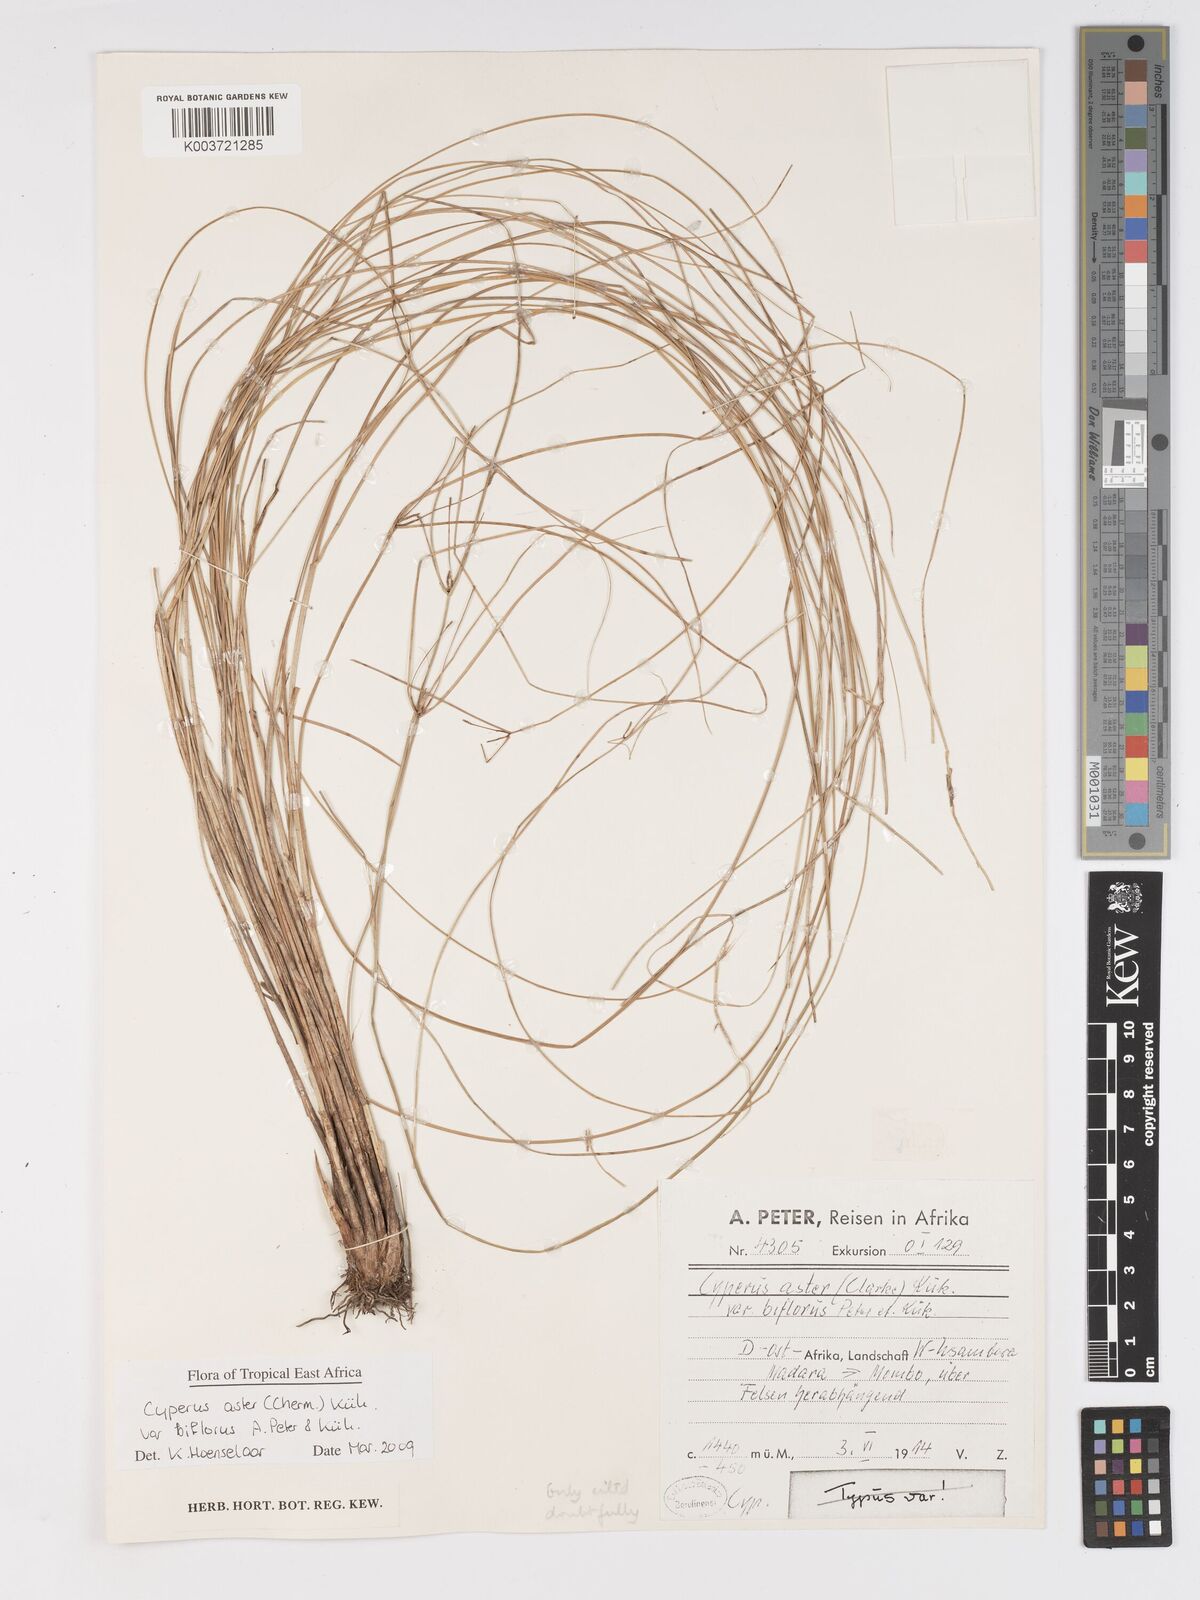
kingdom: Plantae
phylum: Tracheophyta
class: Liliopsida
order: Poales
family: Cyperaceae
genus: Cyperus
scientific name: Cyperus aster
